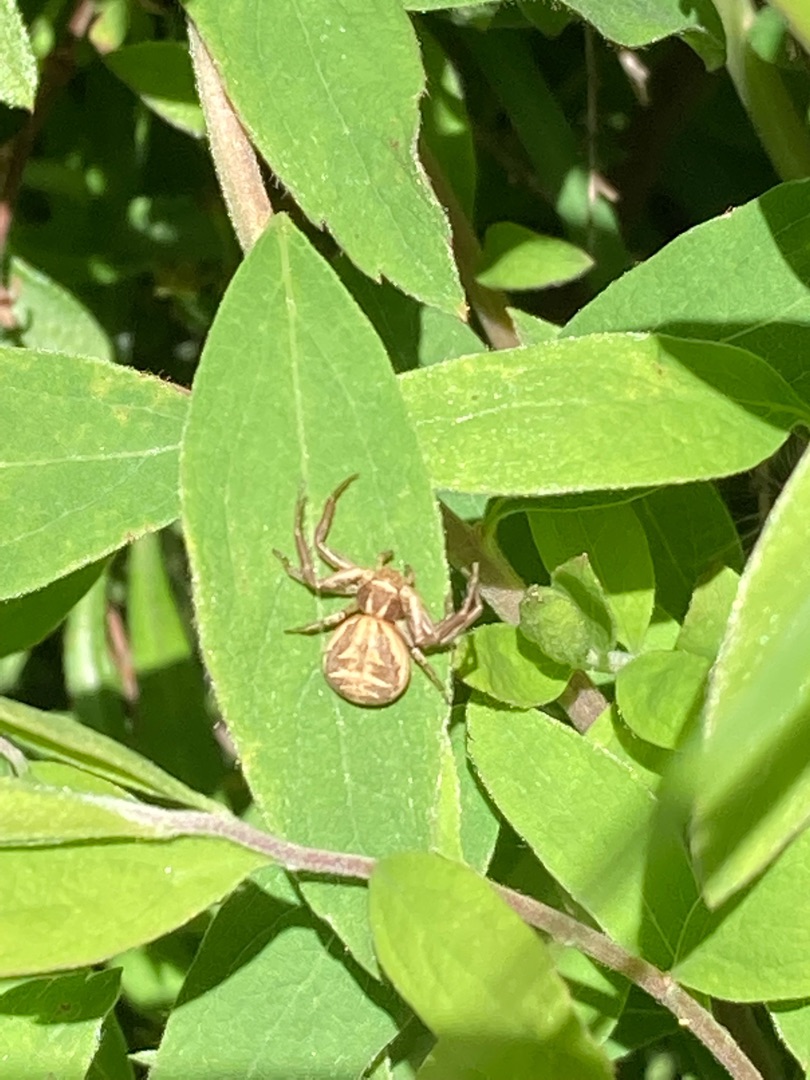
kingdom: Animalia
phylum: Arthropoda
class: Arachnida
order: Araneae
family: Thomisidae
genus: Xysticus
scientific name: Xysticus cristatus
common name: Almindelig krabbeedderkop
